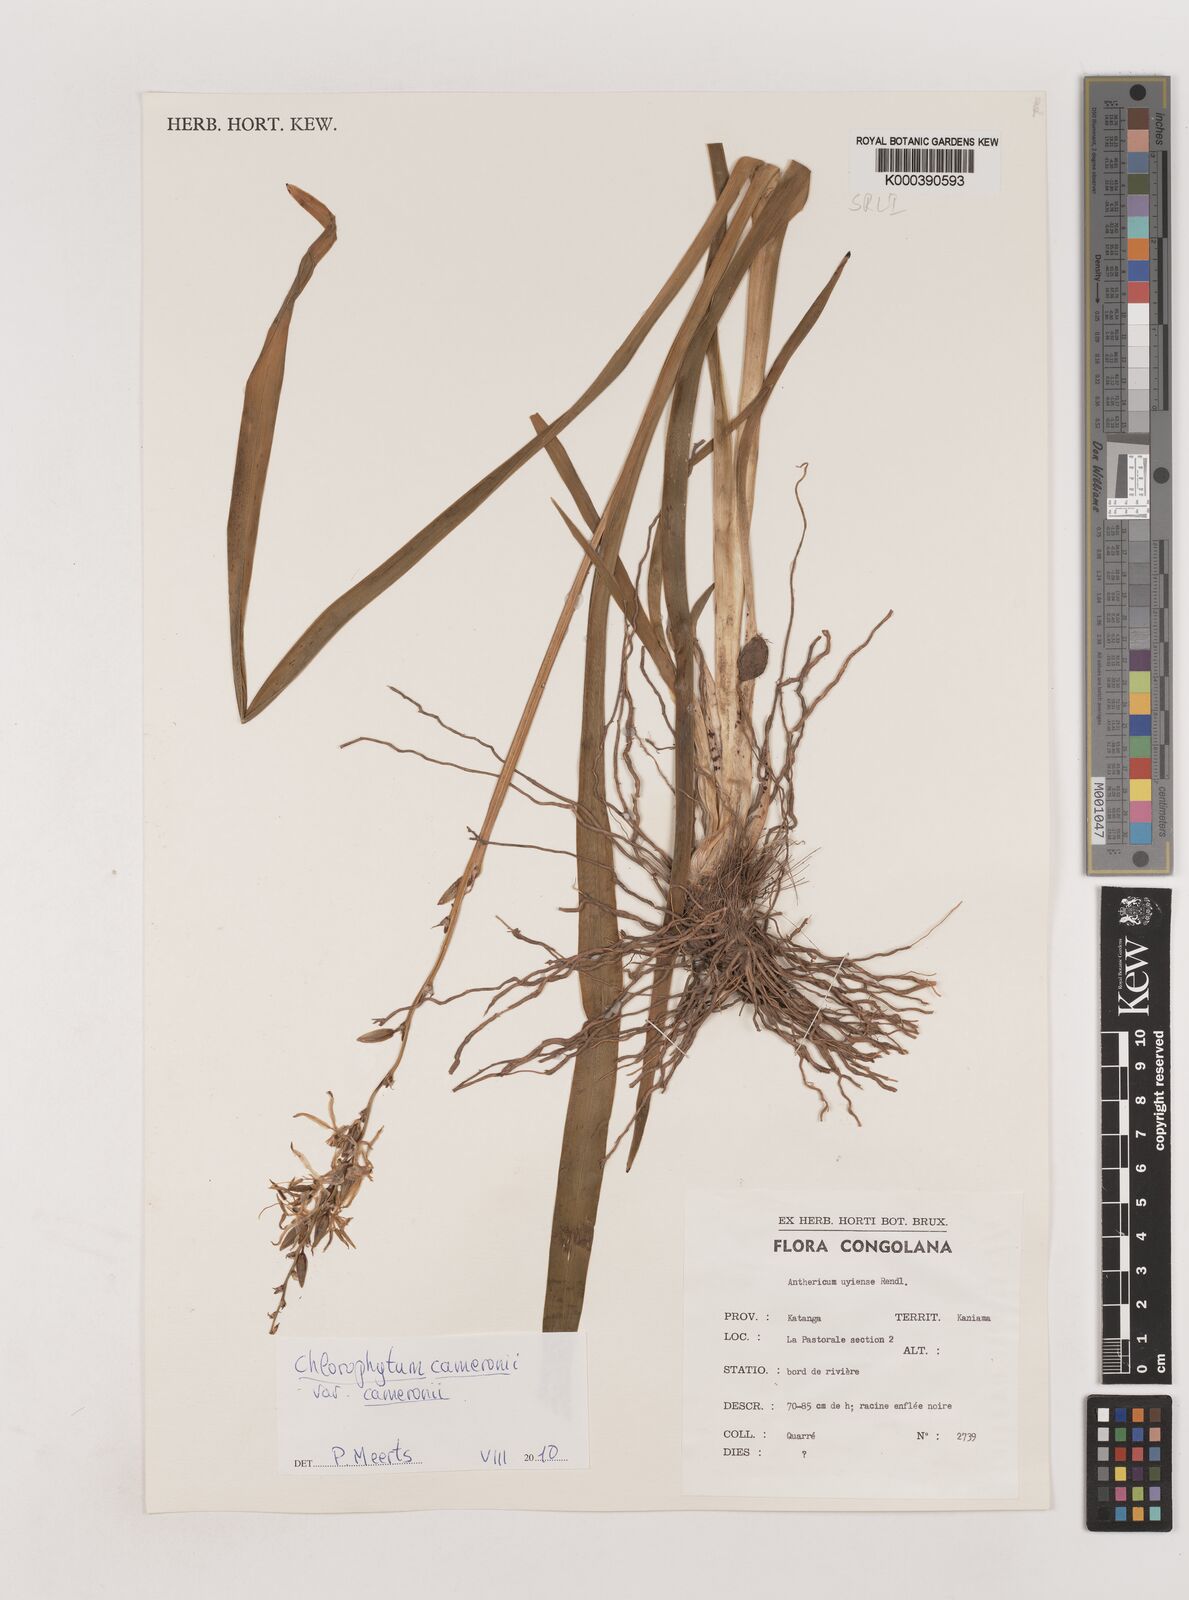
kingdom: Plantae
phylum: Tracheophyta
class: Liliopsida
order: Asparagales
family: Asparagaceae
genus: Chlorophytum
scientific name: Chlorophytum cameronii
